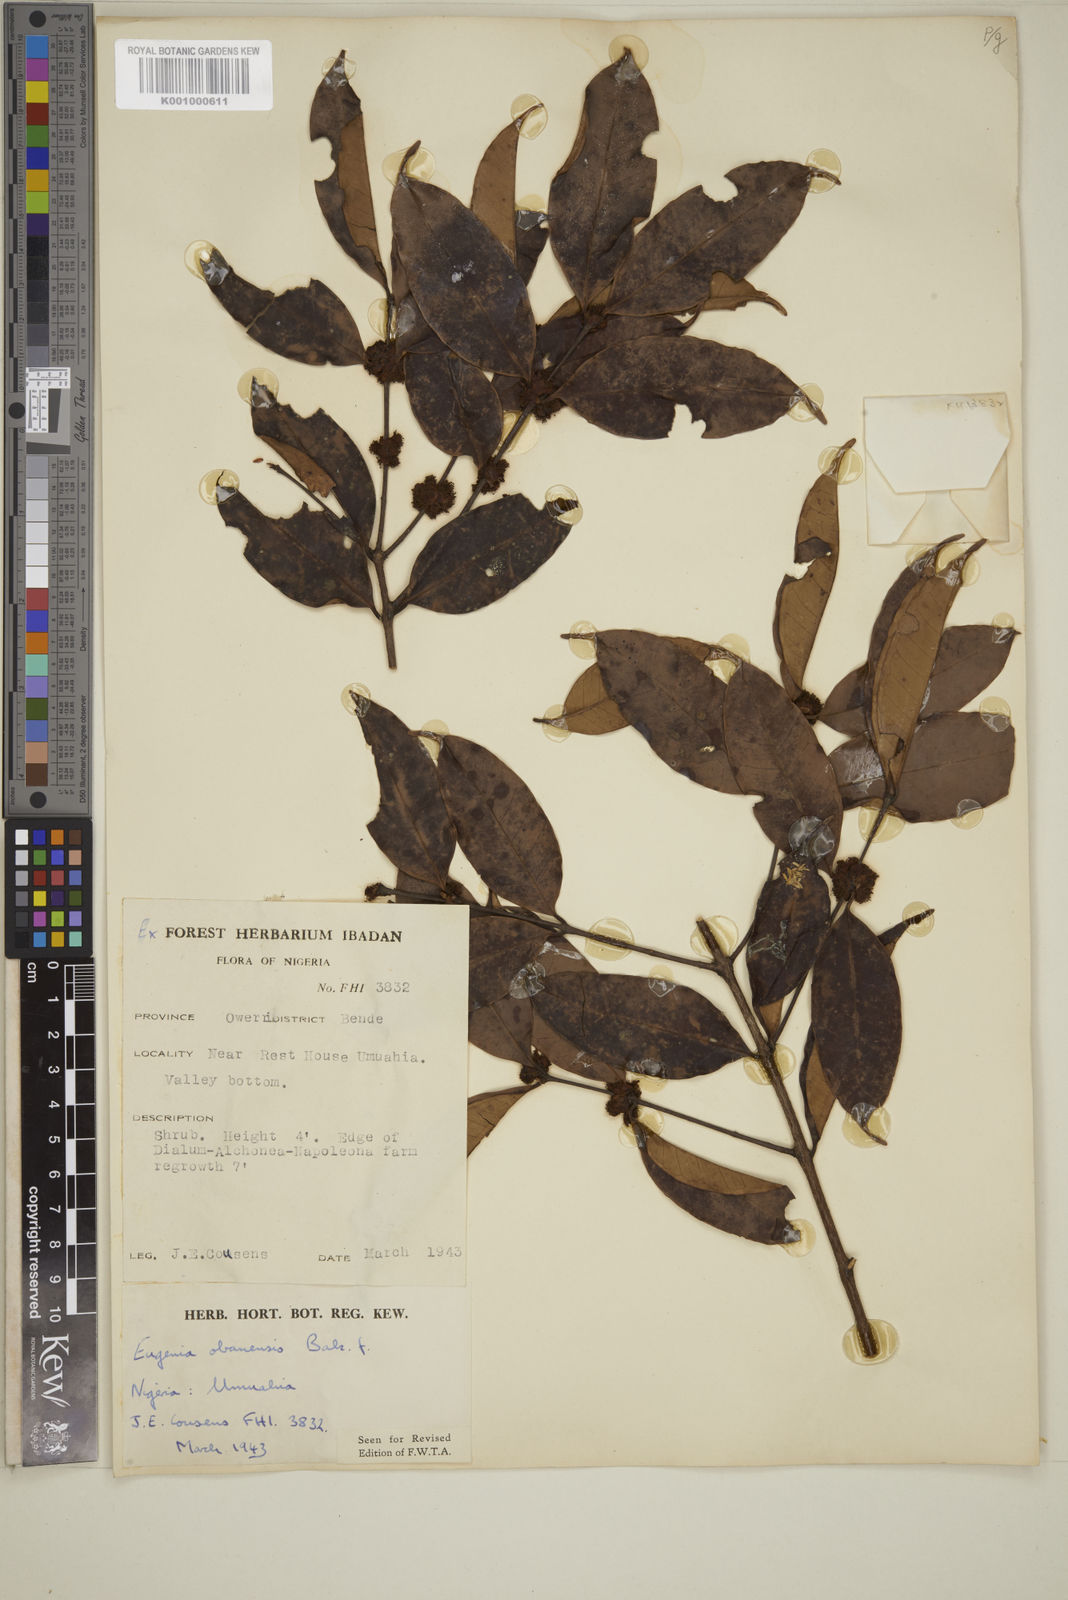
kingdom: Plantae
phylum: Tracheophyta
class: Magnoliopsida
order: Myrtales
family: Myrtaceae
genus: Eugenia
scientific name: Eugenia obanensis
